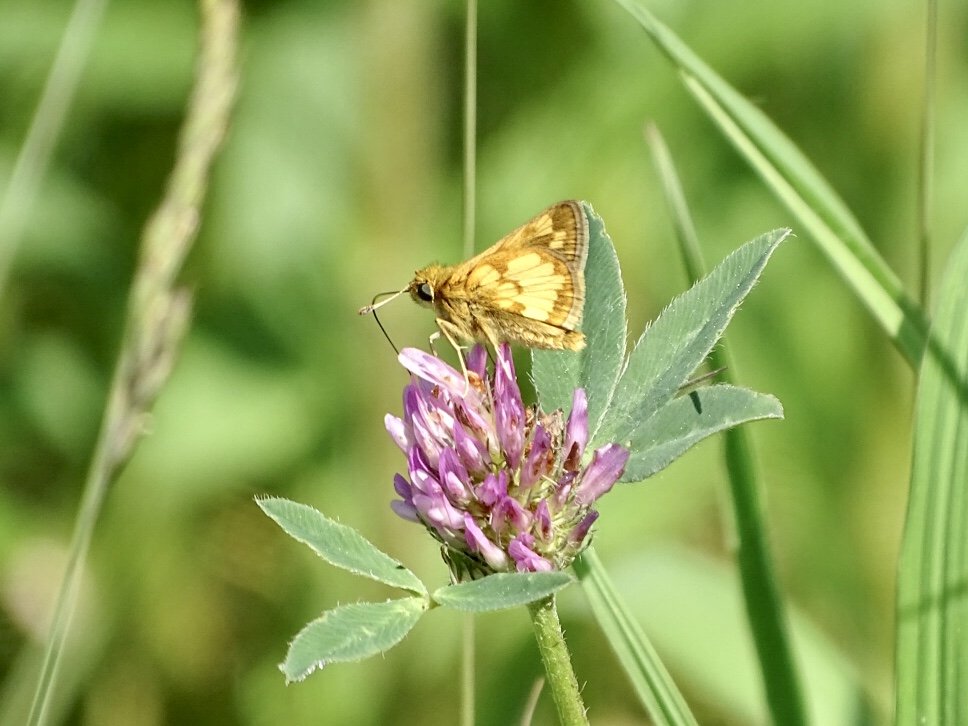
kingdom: Animalia
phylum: Arthropoda
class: Insecta
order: Lepidoptera
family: Hesperiidae
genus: Polites
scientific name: Polites coras
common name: Peck's Skipper
